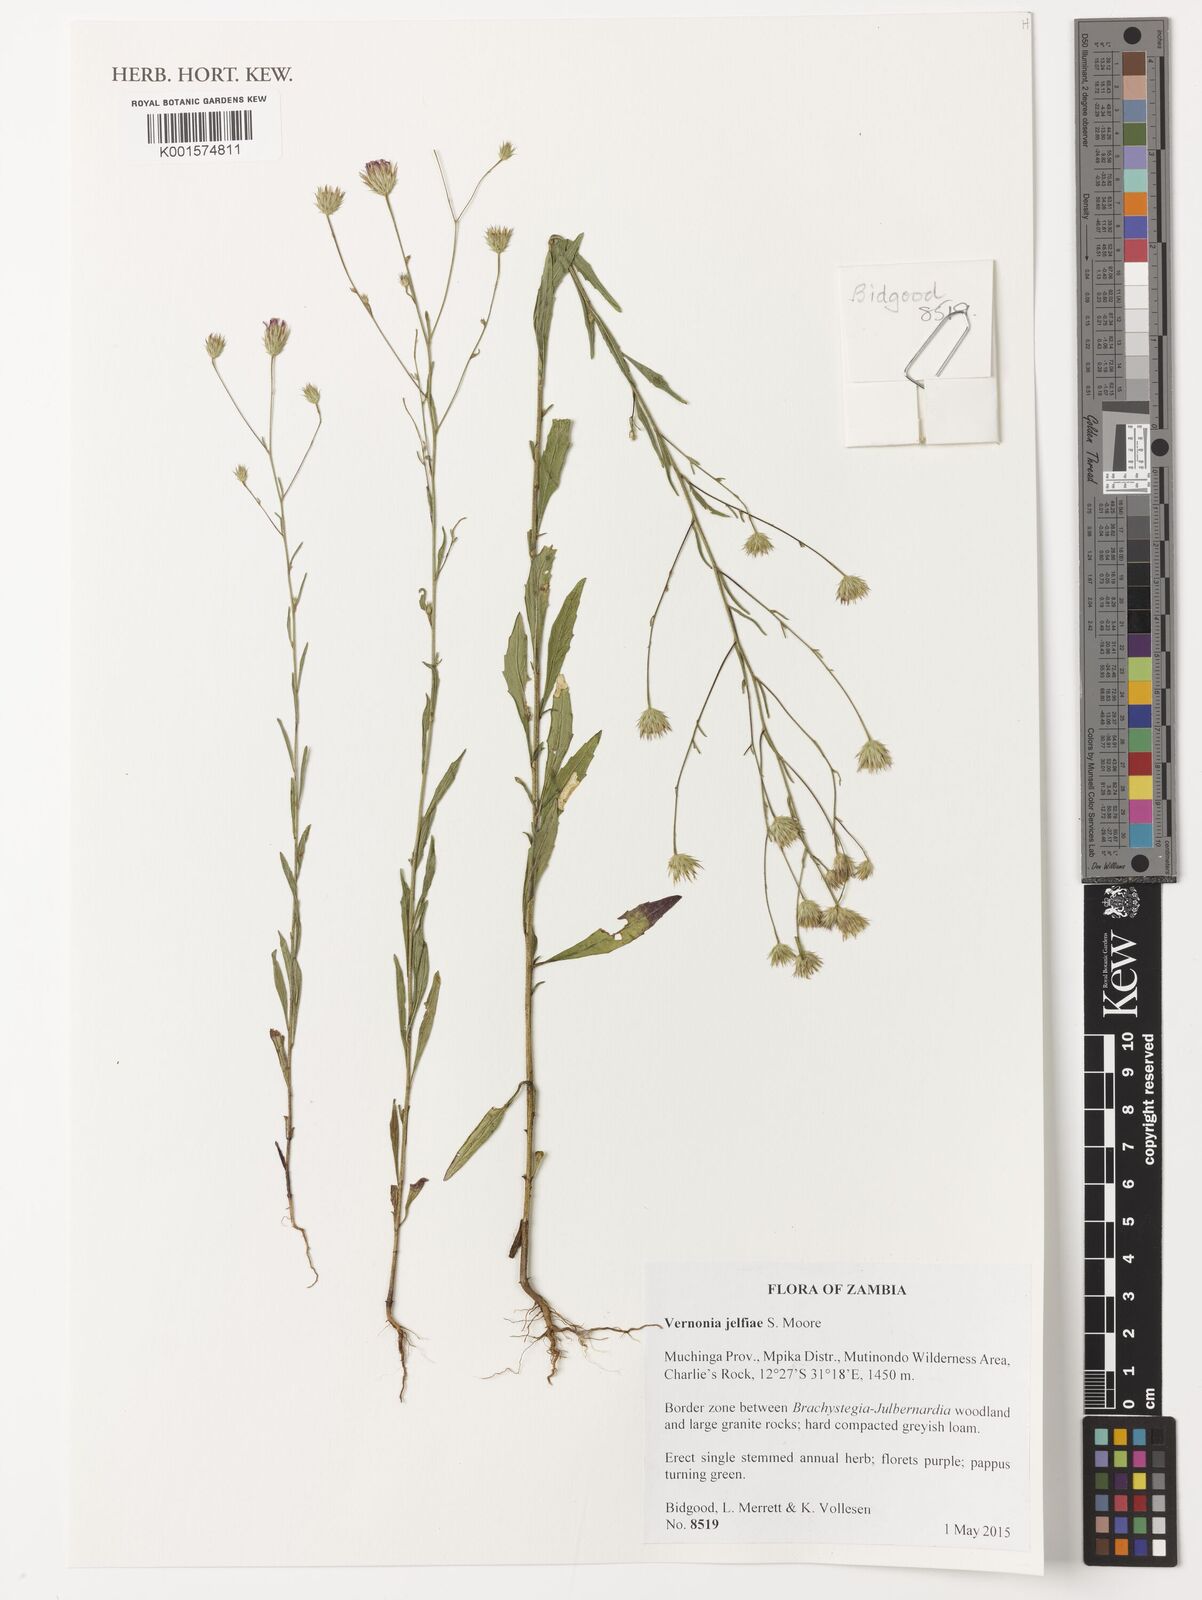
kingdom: Plantae
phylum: Tracheophyta
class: Magnoliopsida
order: Asterales
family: Asteraceae
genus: Crystallopollen
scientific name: Crystallopollen jelfiae
